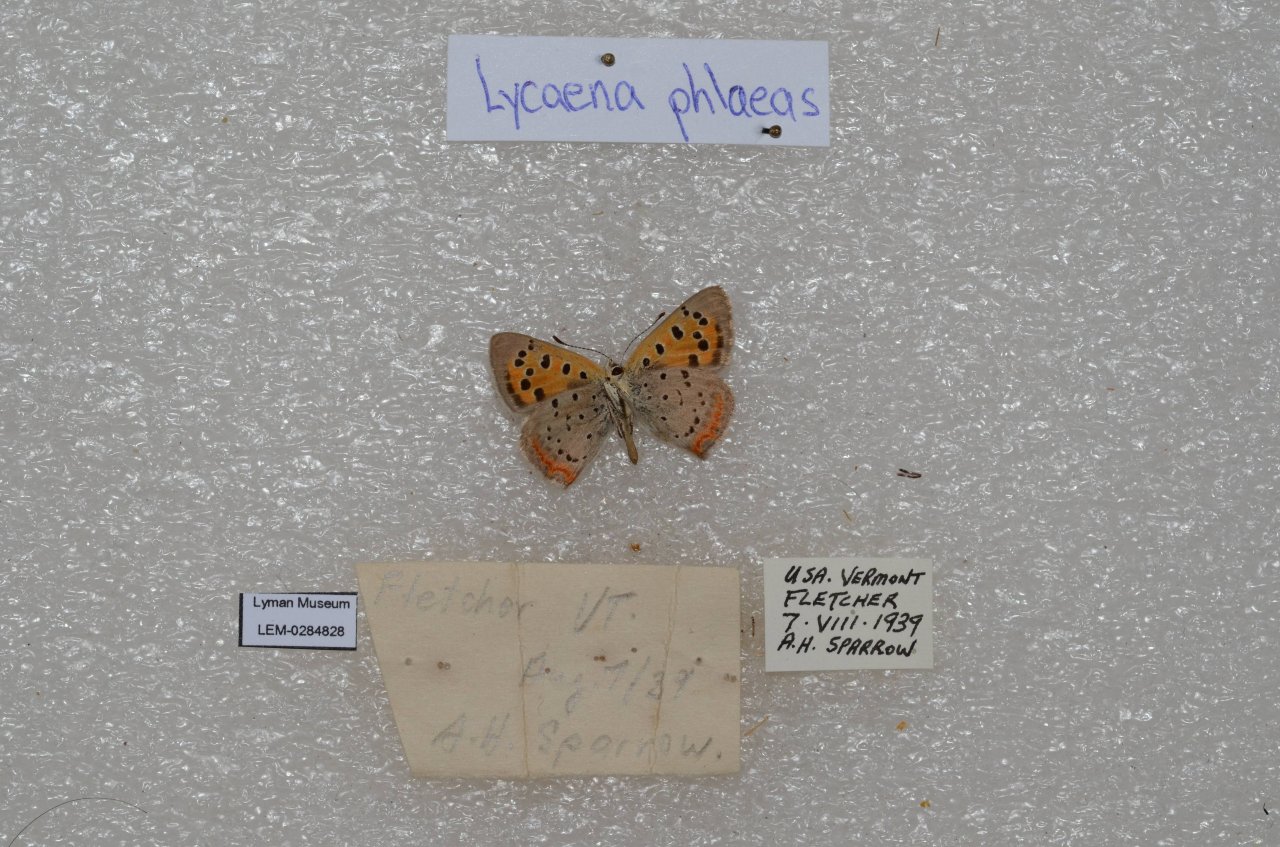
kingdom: Animalia
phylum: Arthropoda
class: Insecta
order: Lepidoptera
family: Lycaenidae
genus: Lycaena
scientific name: Lycaena phlaeas
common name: American Copper
